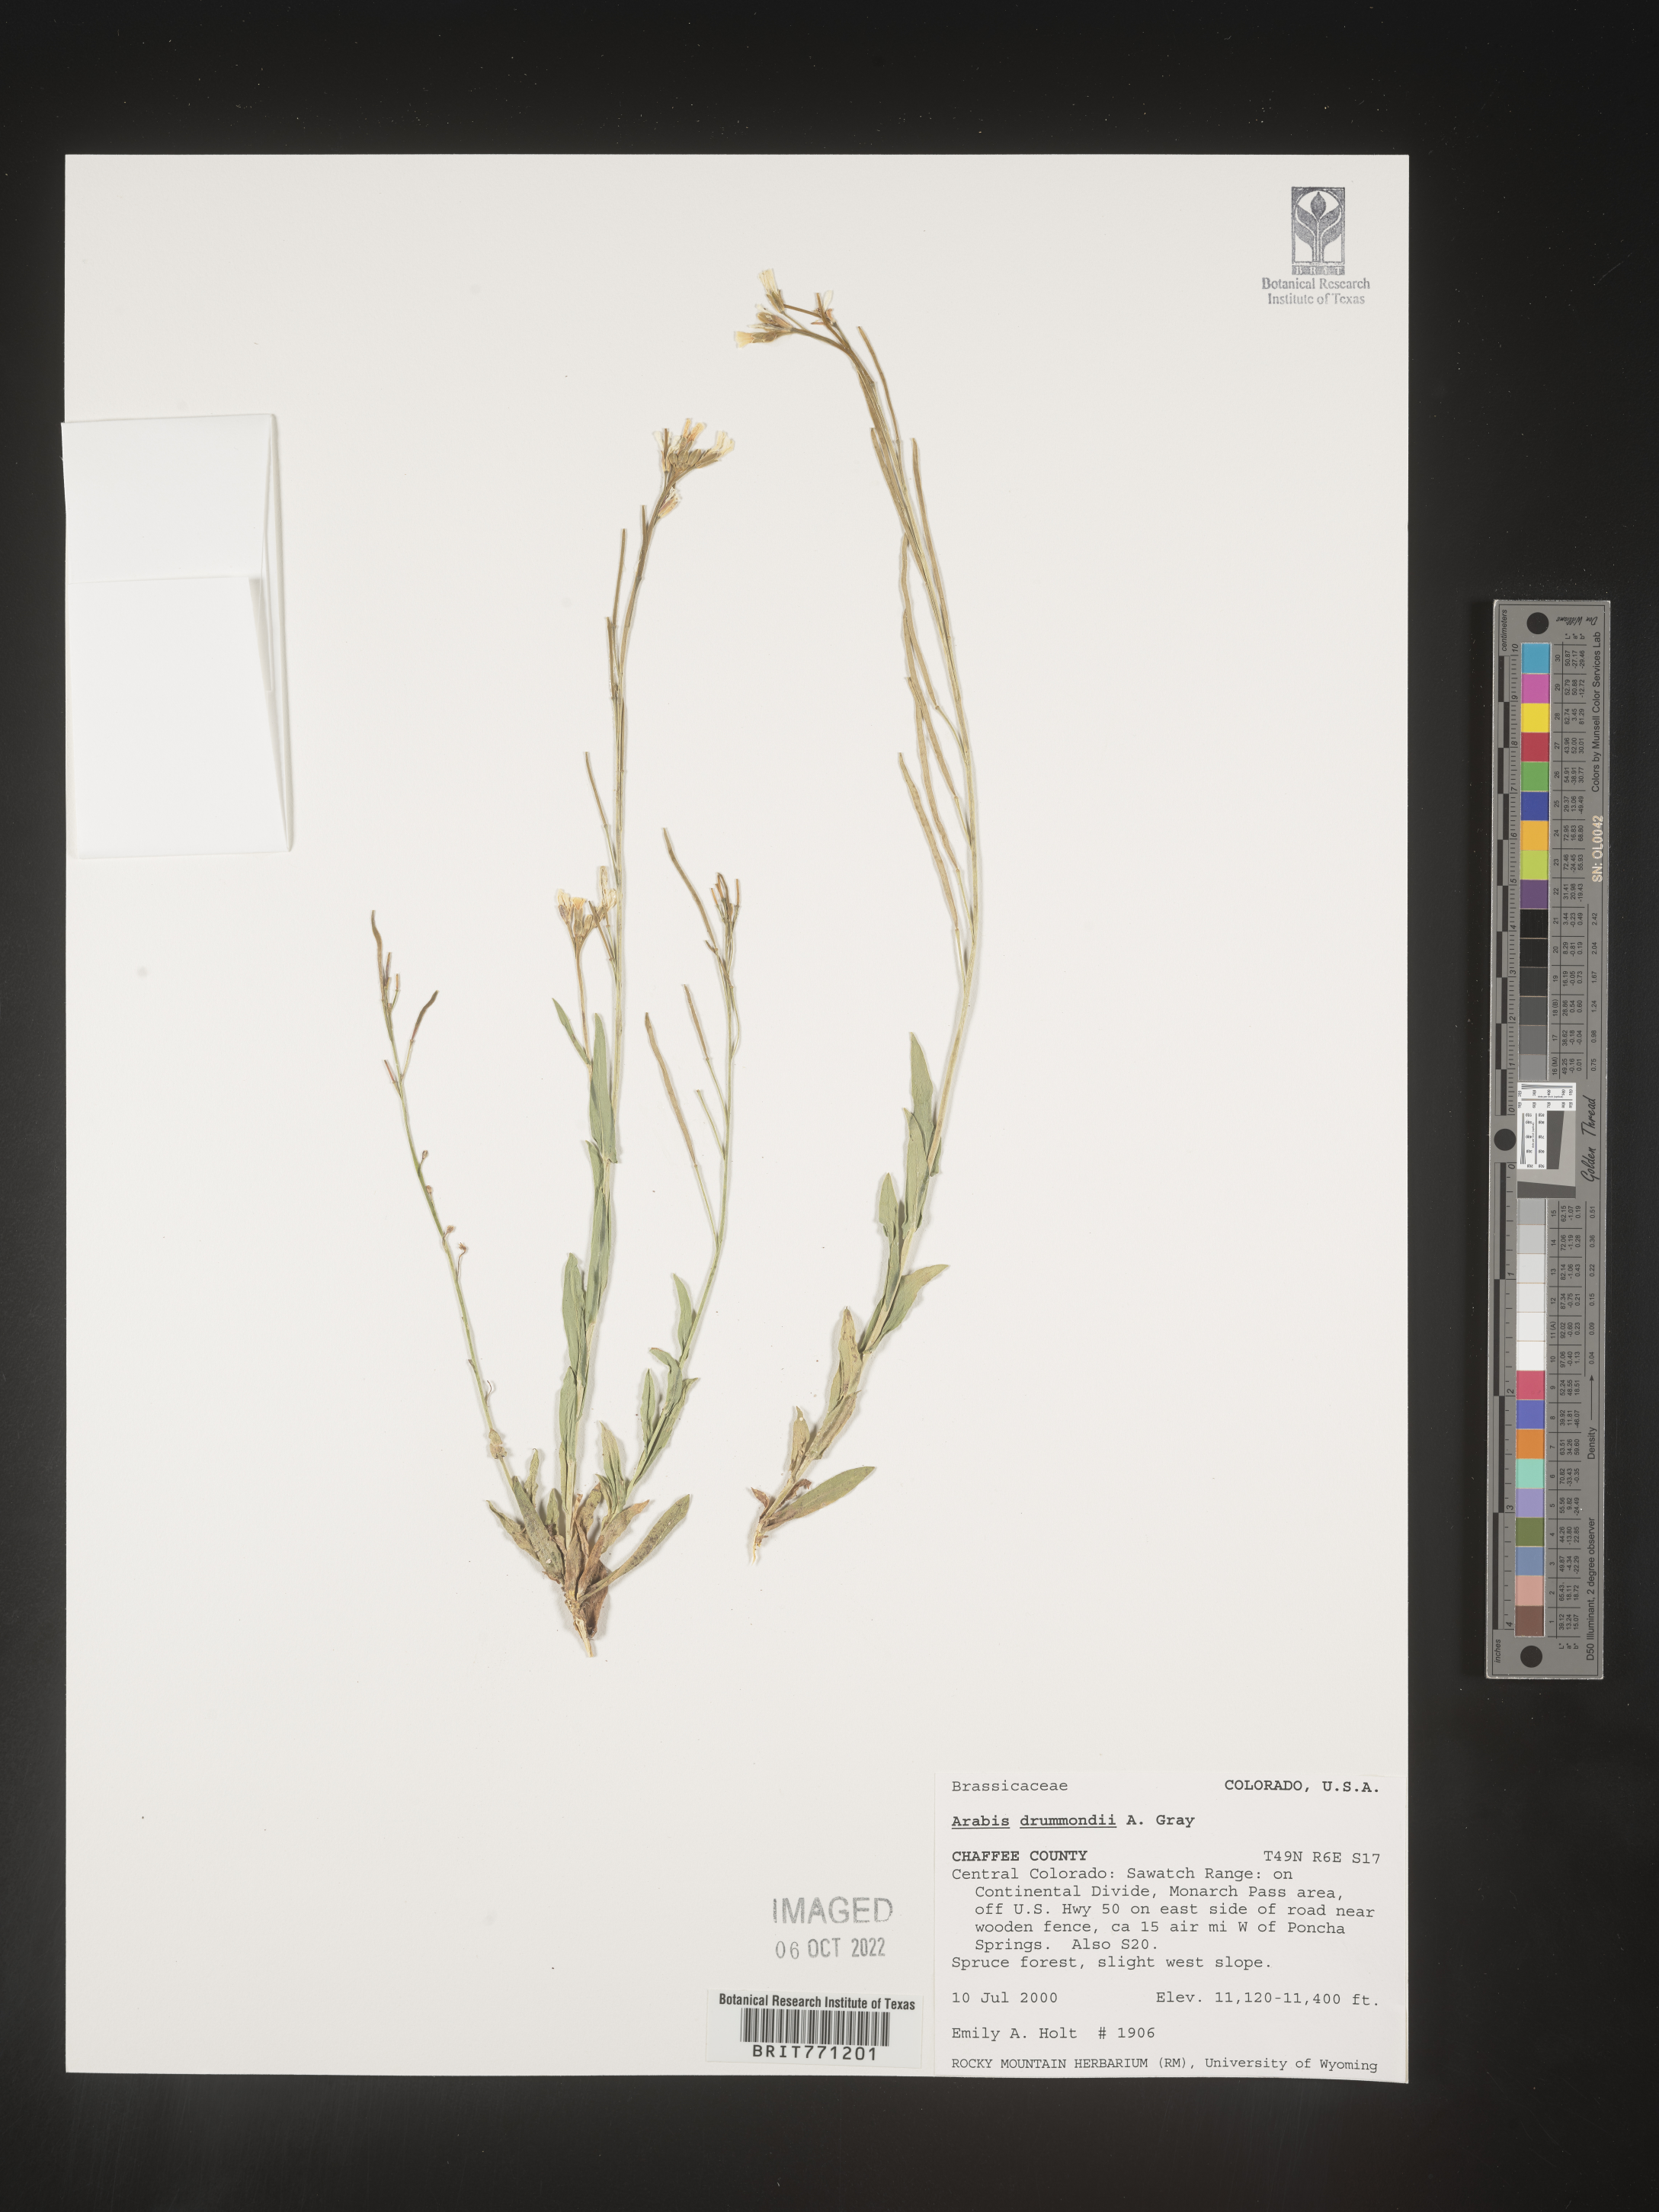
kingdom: Plantae
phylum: Tracheophyta
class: Magnoliopsida
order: Brassicales
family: Brassicaceae
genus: Boechera
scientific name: Boechera stricta
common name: Canadian rockcress
